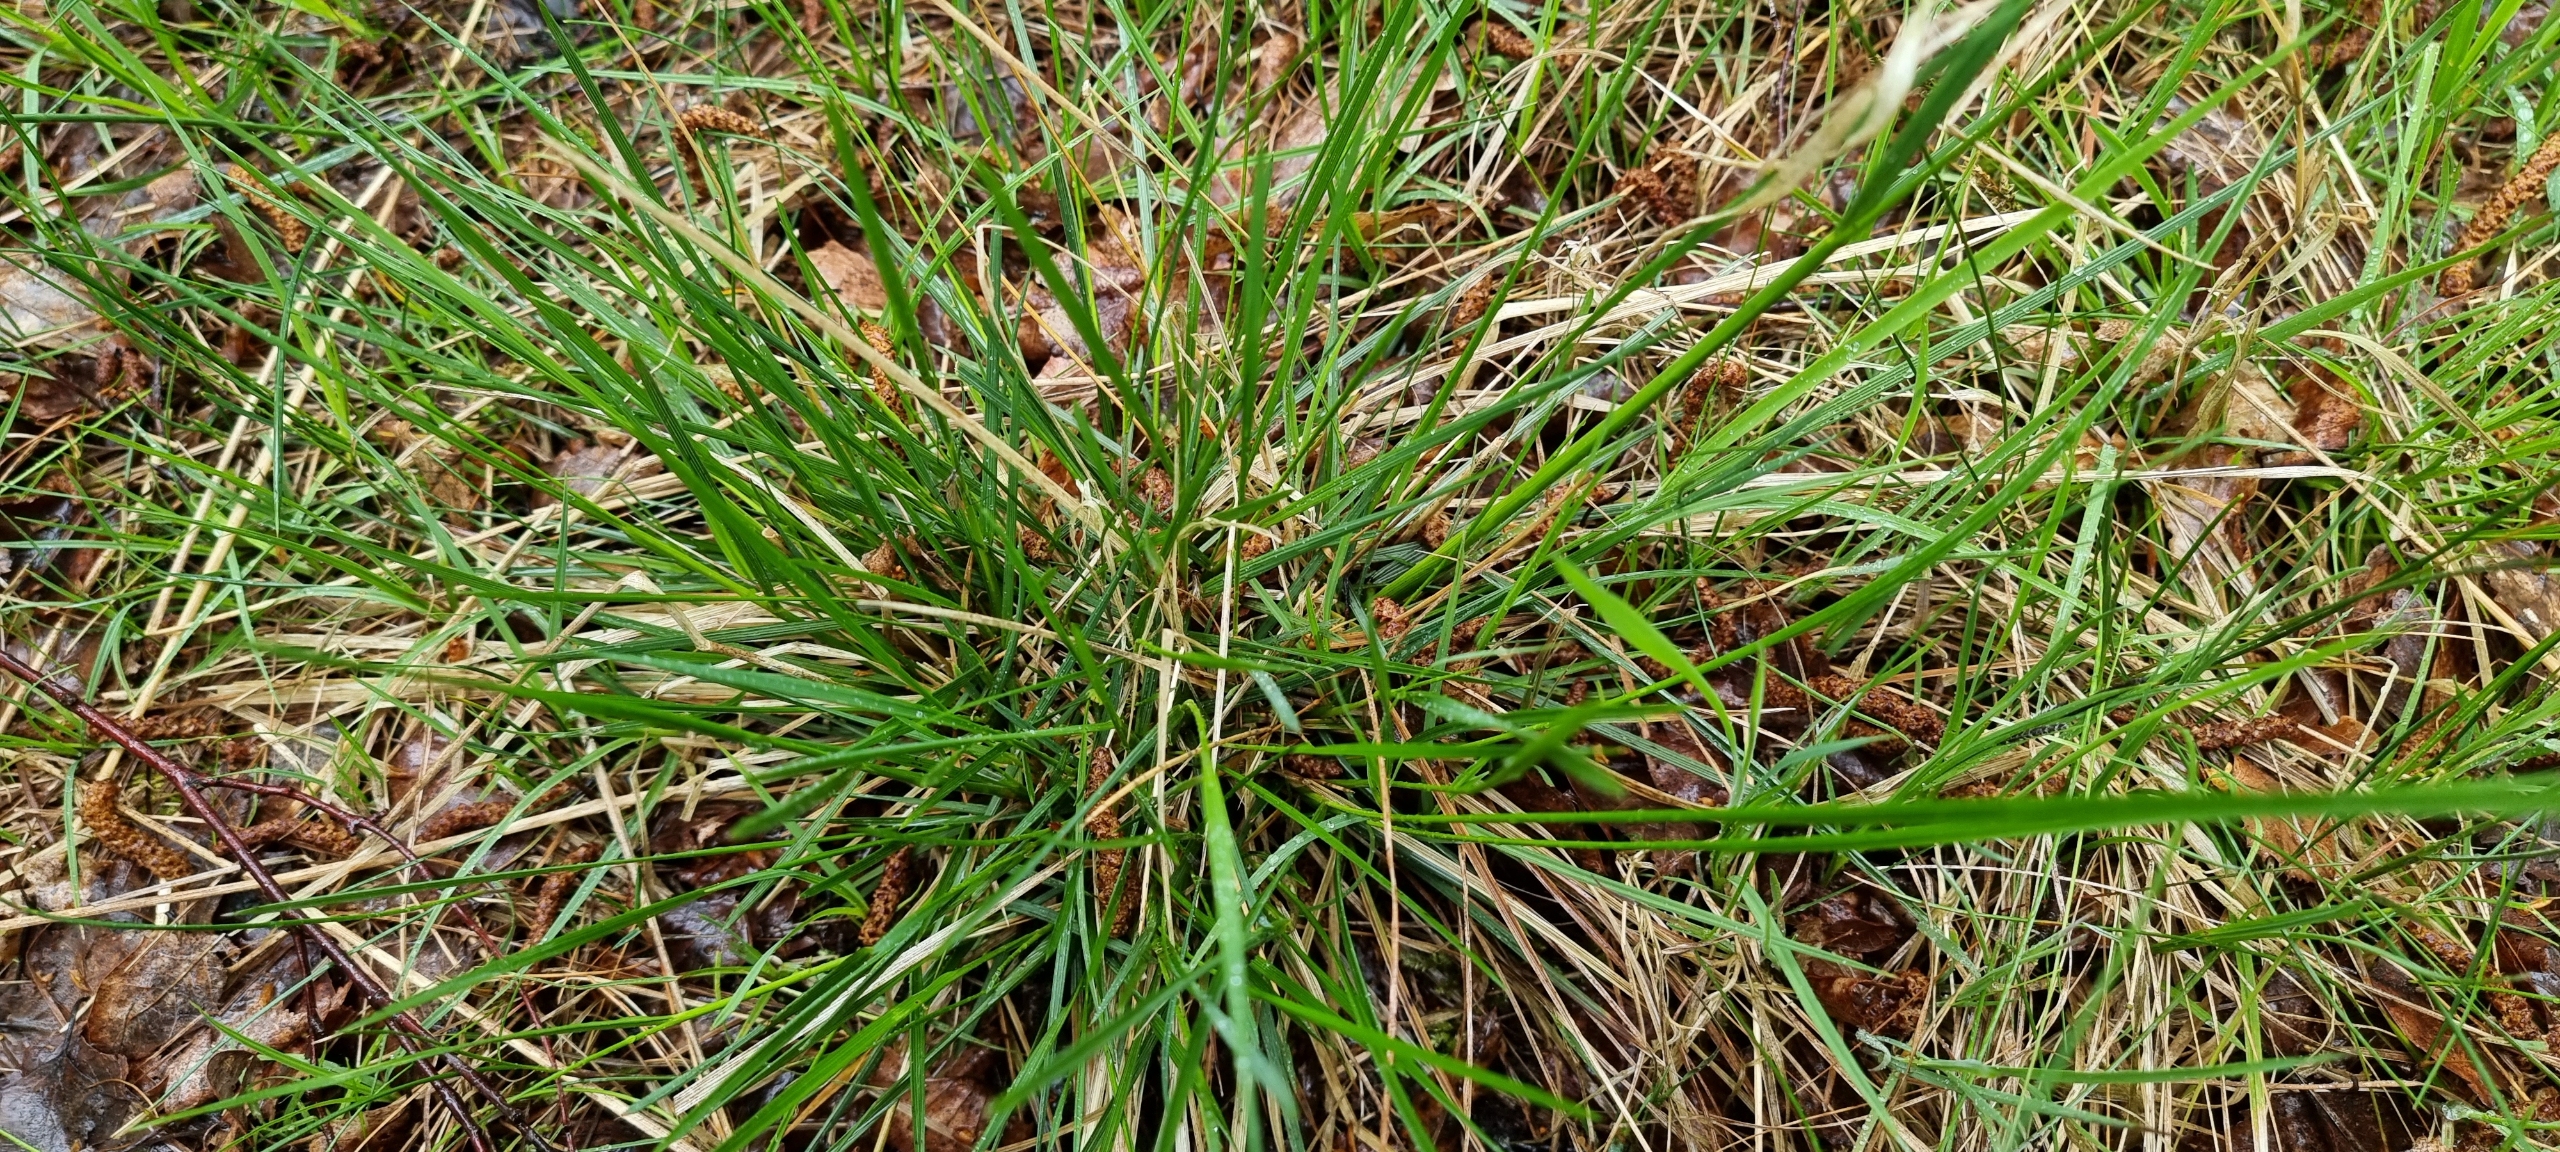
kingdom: Plantae
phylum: Tracheophyta
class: Liliopsida
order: Poales
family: Poaceae
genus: Deschampsia
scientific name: Deschampsia cespitosa
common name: Mose-bunke
